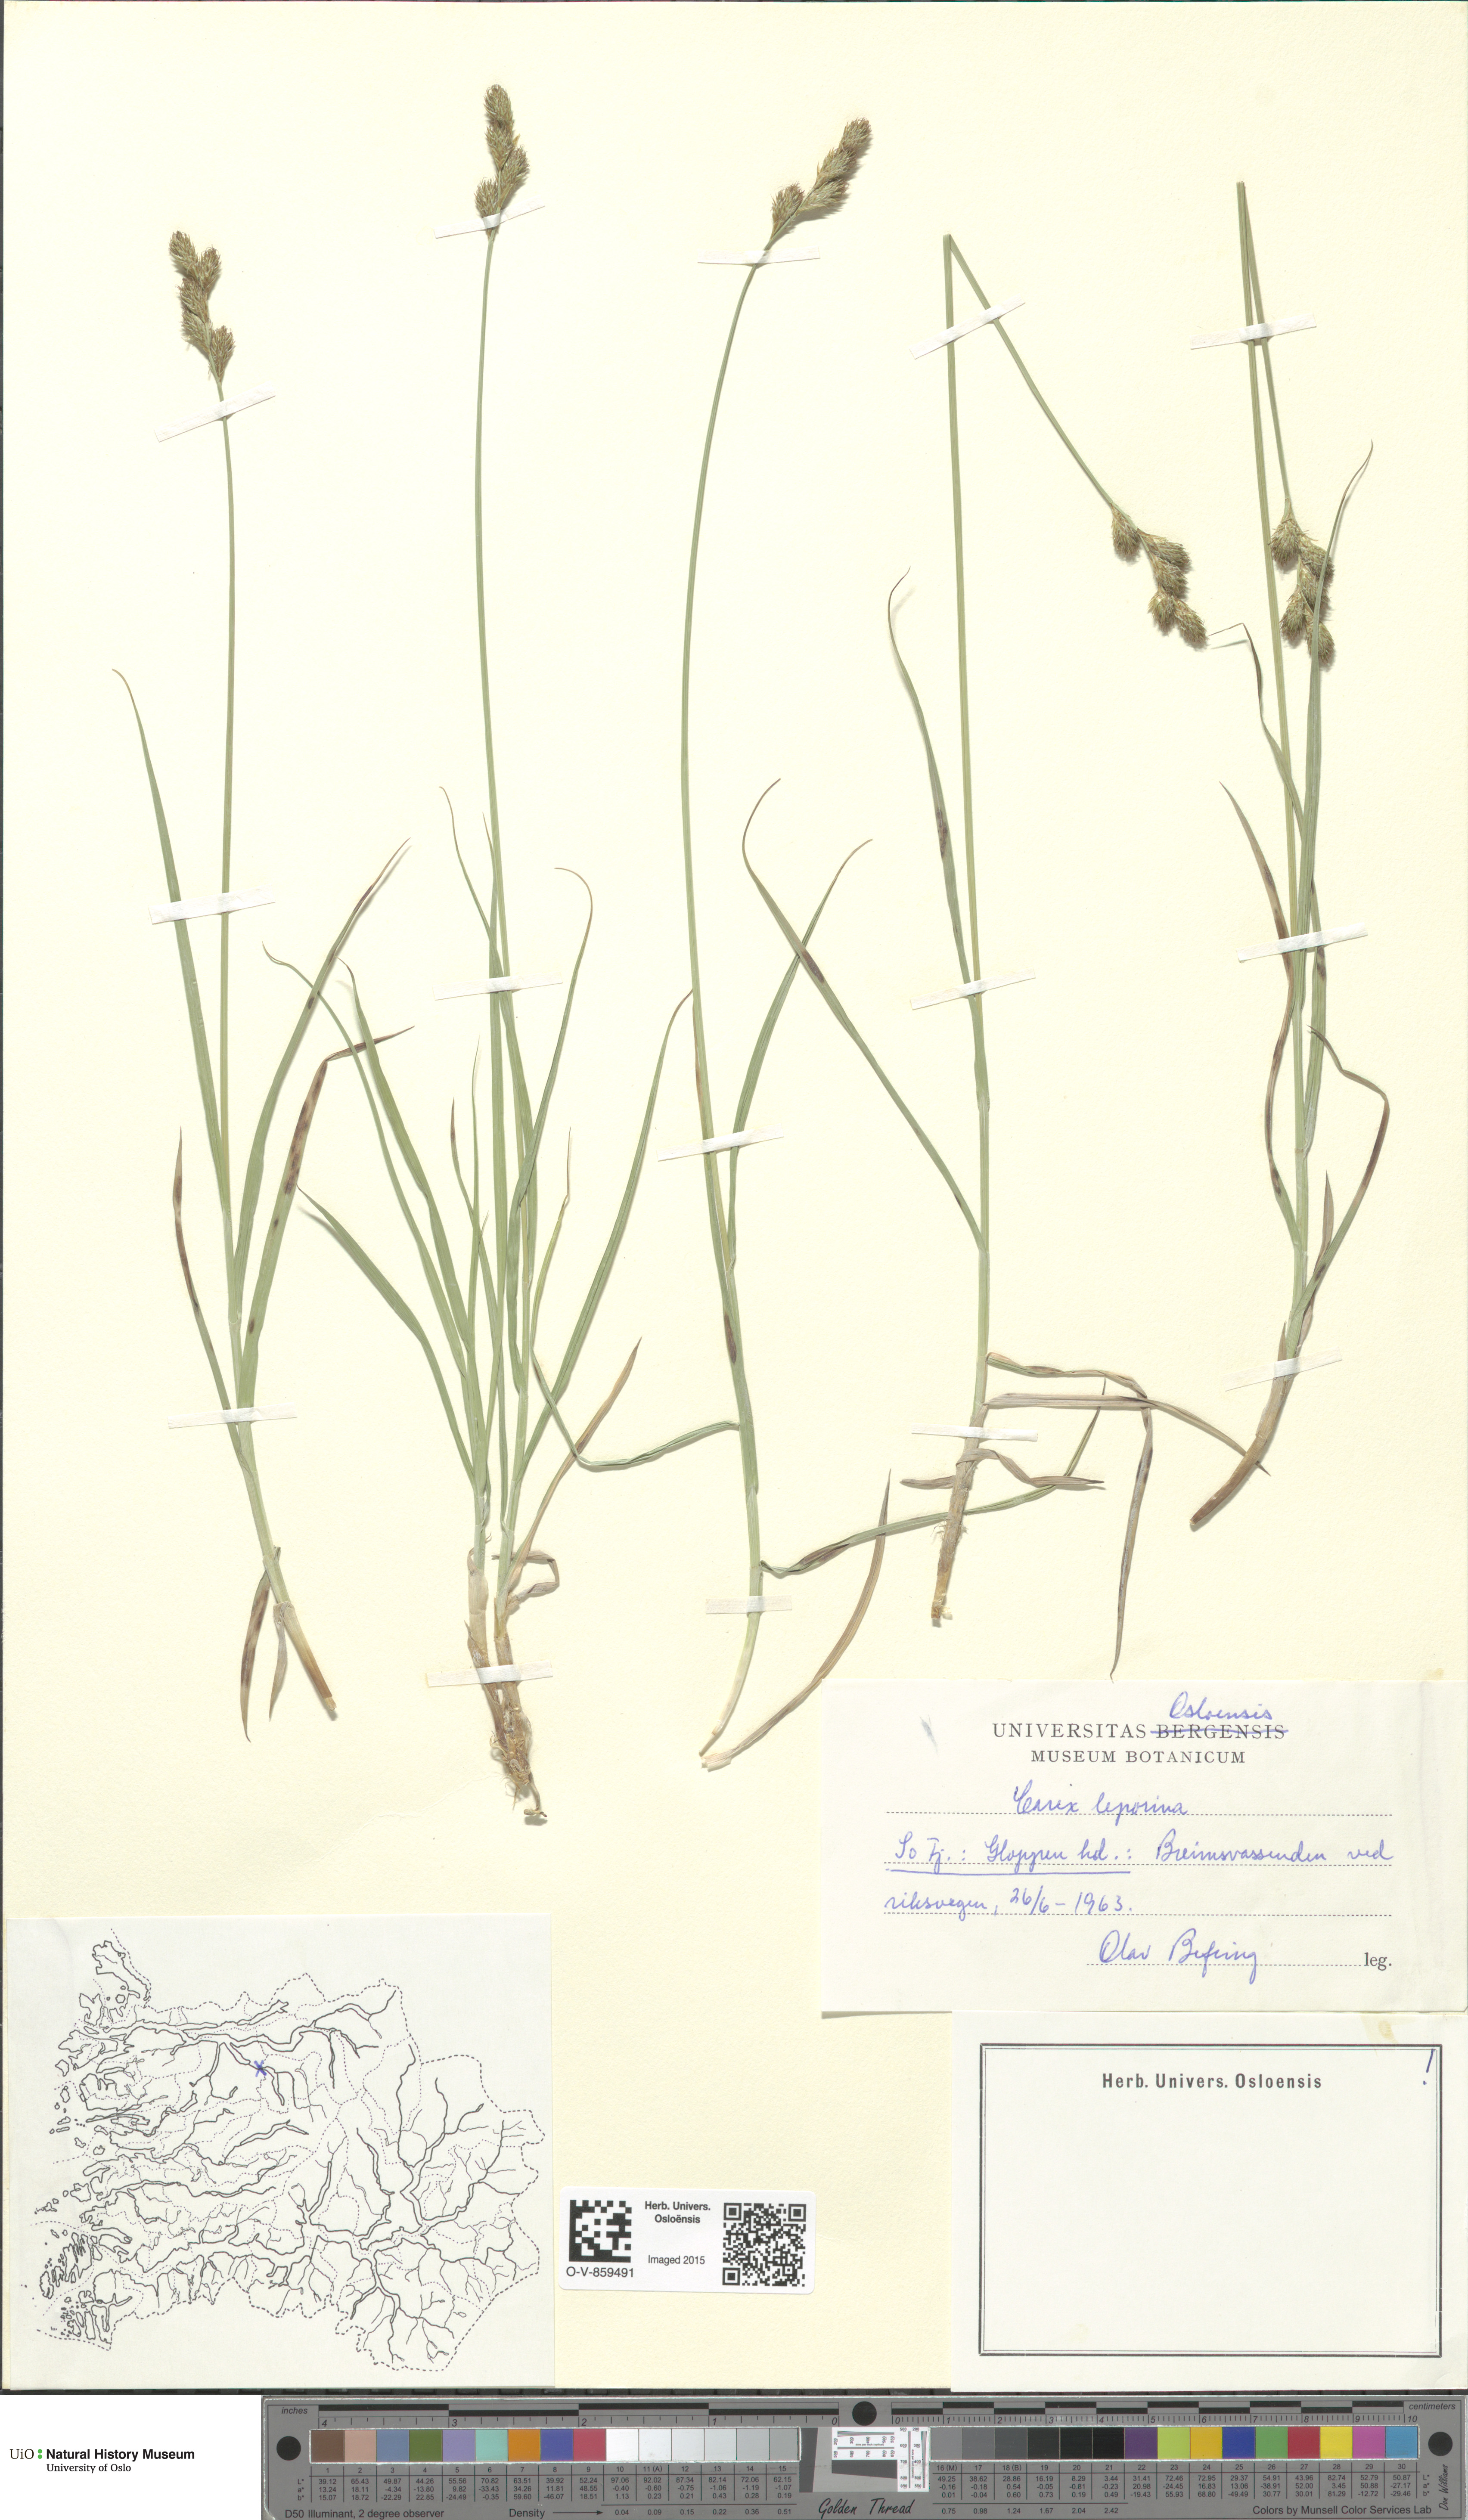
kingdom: Plantae
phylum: Tracheophyta
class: Liliopsida
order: Poales
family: Cyperaceae
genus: Carex
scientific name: Carex leporina
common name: Oval sedge
